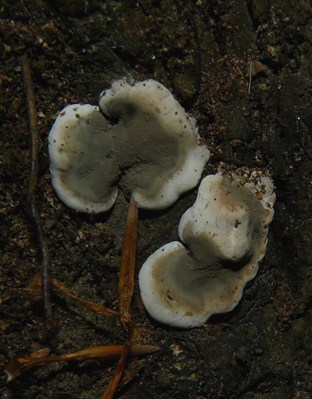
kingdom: Fungi
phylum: Ascomycota
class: Sordariomycetes
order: Xylariales
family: Xylariaceae
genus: Kretzschmaria
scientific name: Kretzschmaria deusta
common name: stor kulsvamp
